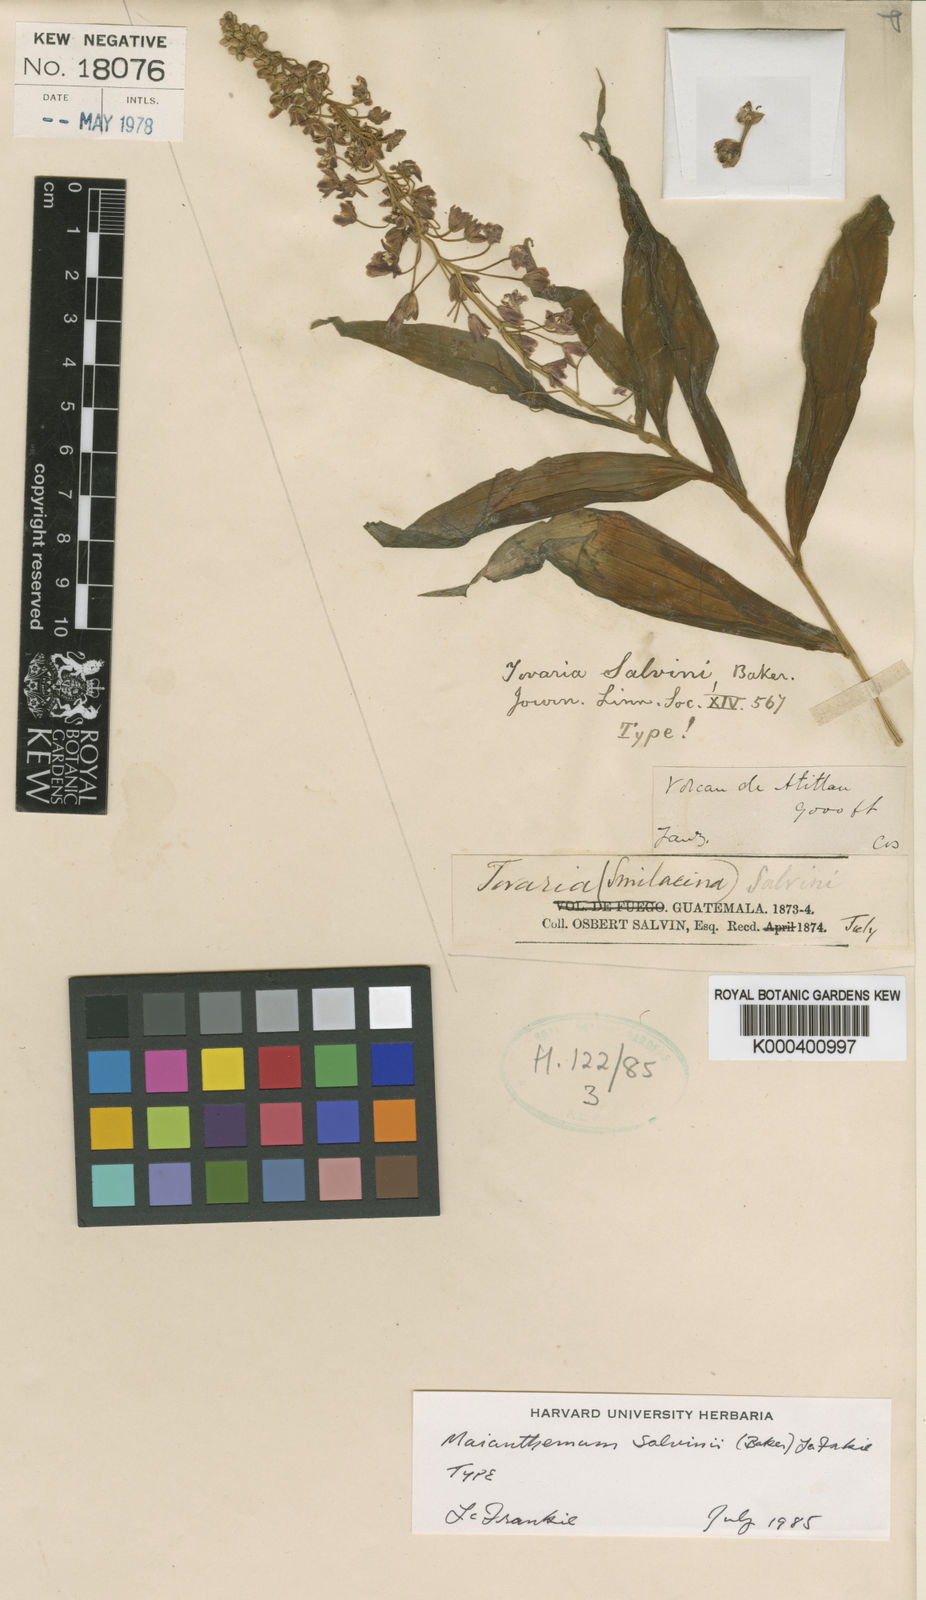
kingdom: Plantae
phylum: Tracheophyta
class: Liliopsida
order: Asparagales
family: Asparagaceae
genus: Maianthemum
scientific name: Maianthemum salvinii
